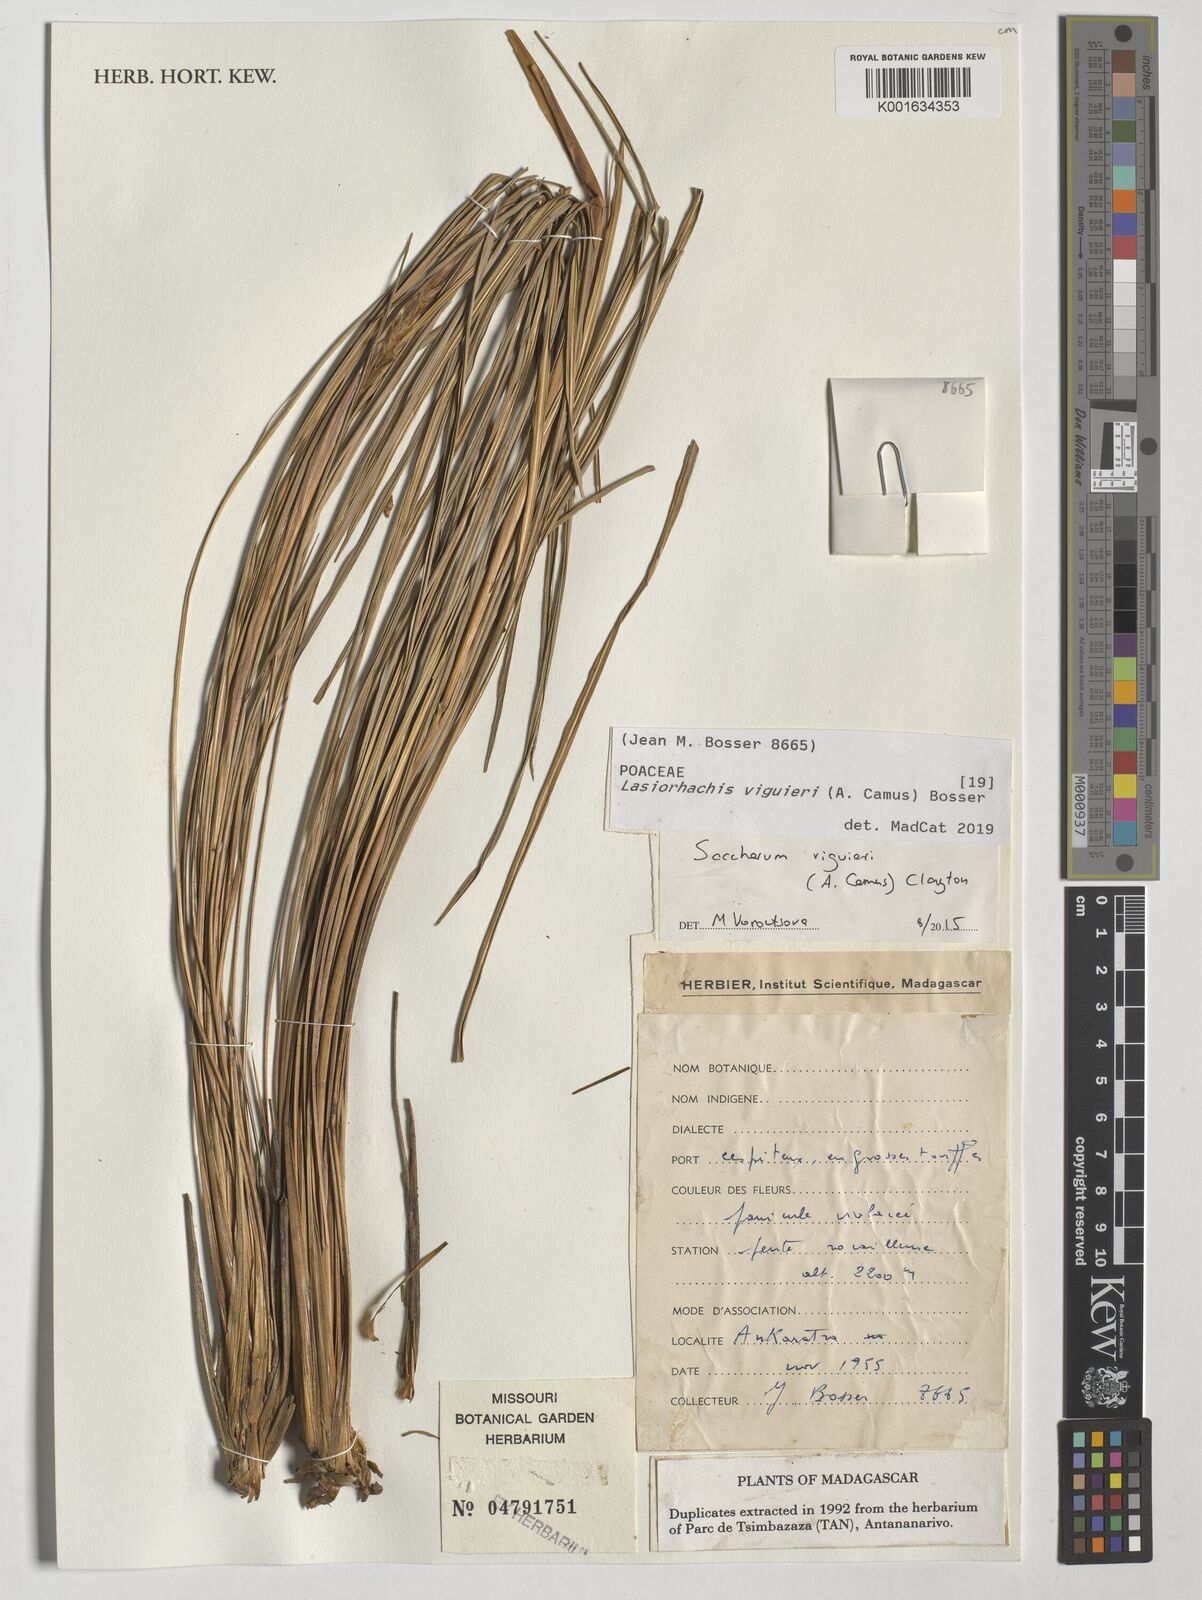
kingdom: Plantae
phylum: Tracheophyta
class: Liliopsida
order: Poales
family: Poaceae
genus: Lasiorhachis
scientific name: Lasiorhachis viguieri
